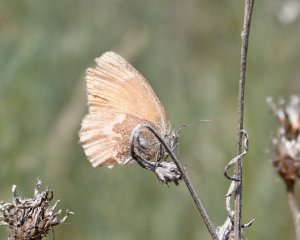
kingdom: Animalia
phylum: Arthropoda
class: Insecta
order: Lepidoptera
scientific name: Lepidoptera
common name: Butterflies
